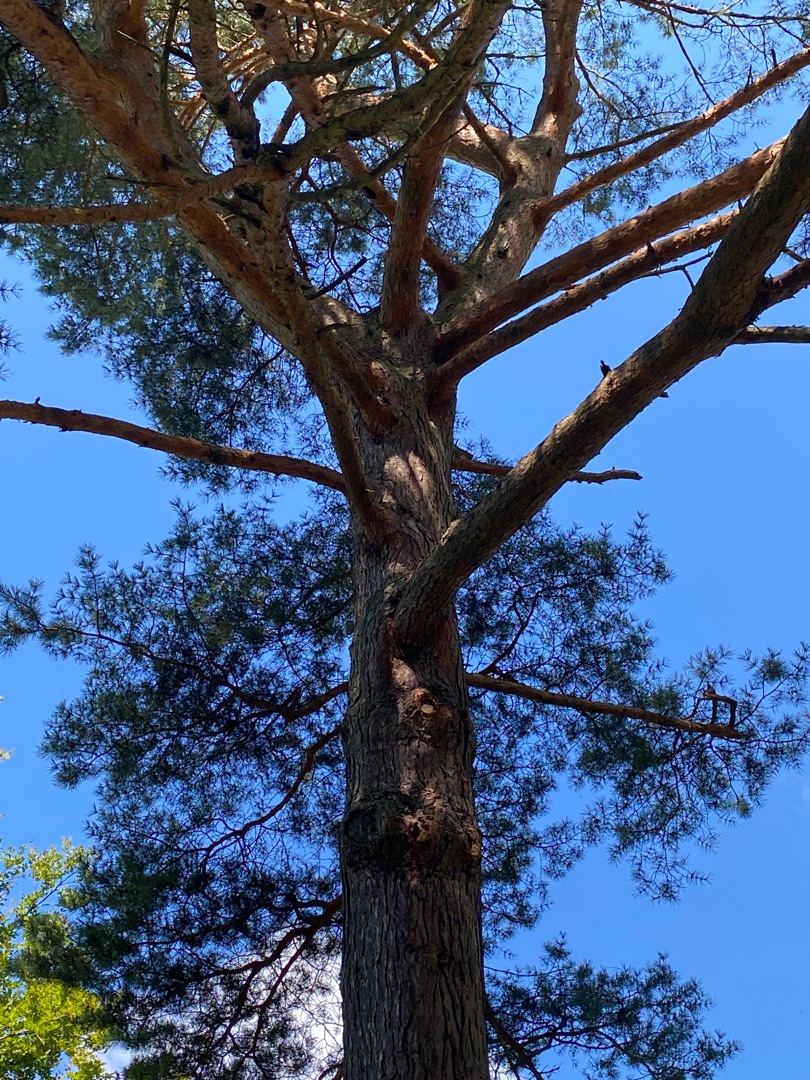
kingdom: Plantae
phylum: Tracheophyta
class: Pinopsida
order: Pinales
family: Pinaceae
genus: Pinus
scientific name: Pinus sylvestris
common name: Skov-fyr
